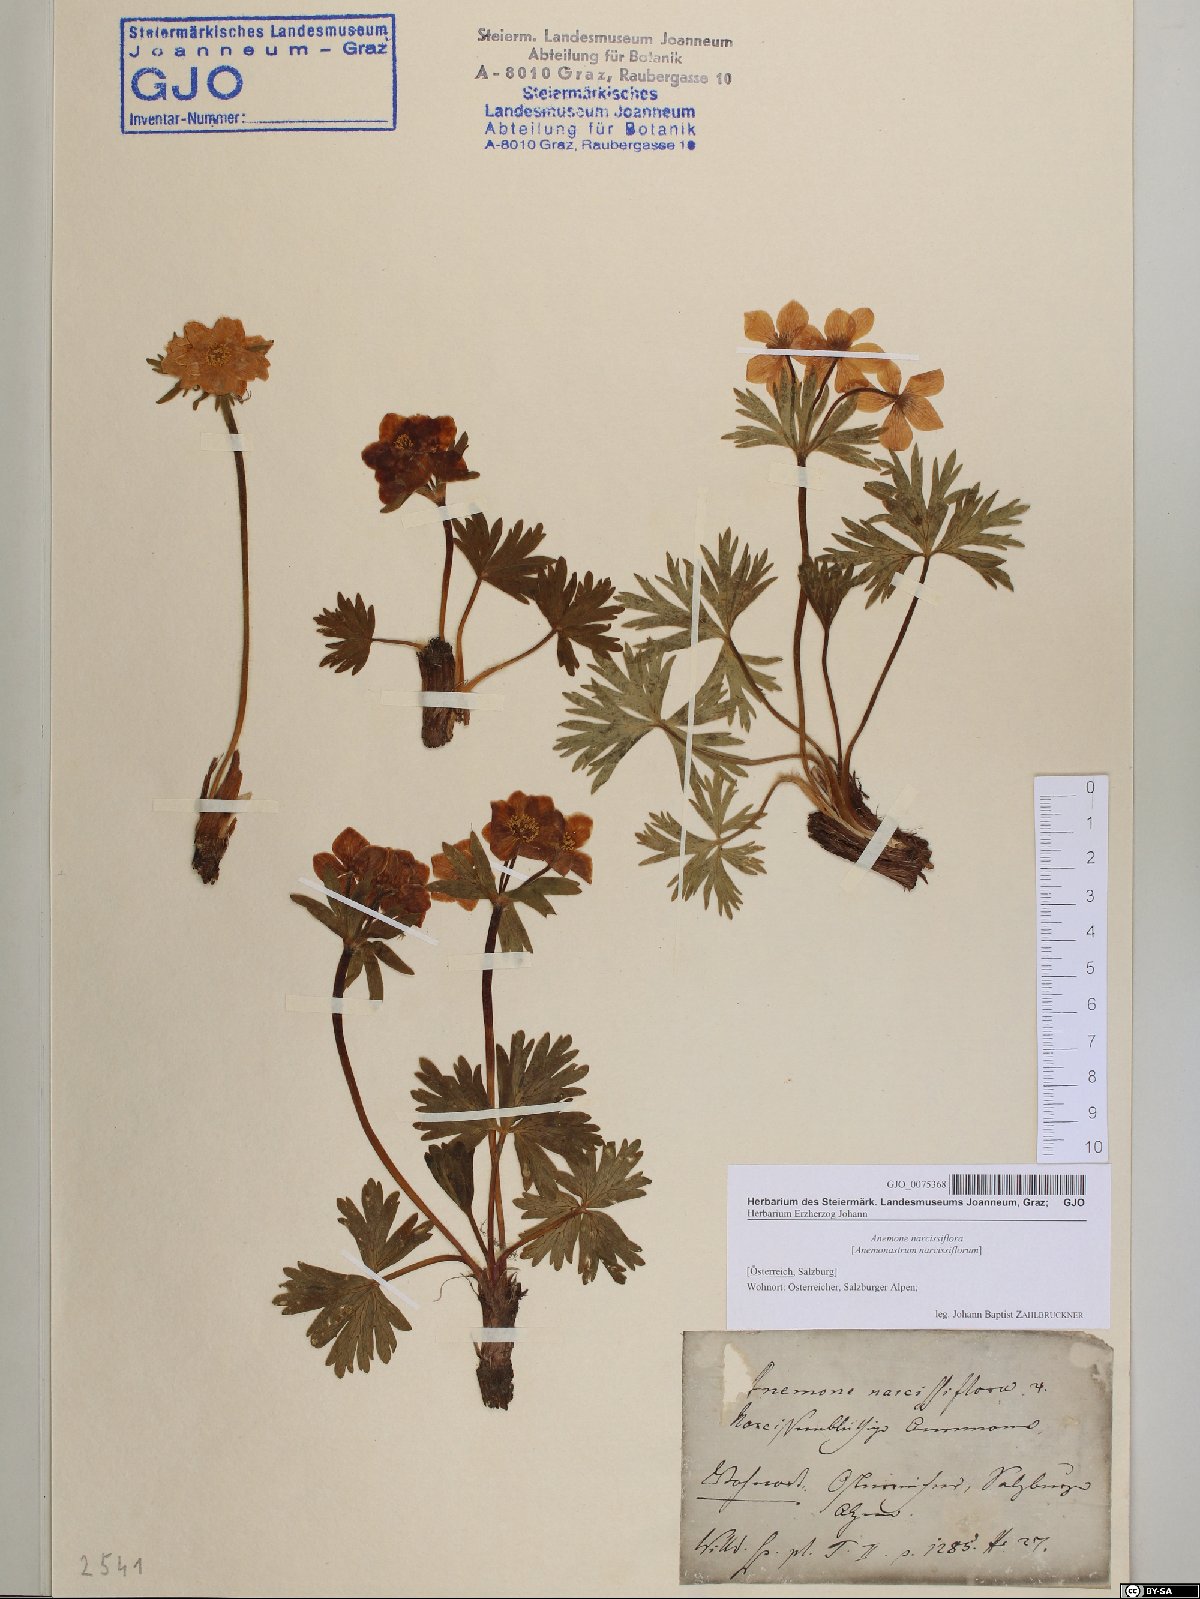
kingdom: Plantae
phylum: Tracheophyta
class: Magnoliopsida
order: Ranunculales
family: Ranunculaceae
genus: Anemonastrum
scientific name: Anemonastrum narcissiflorum
